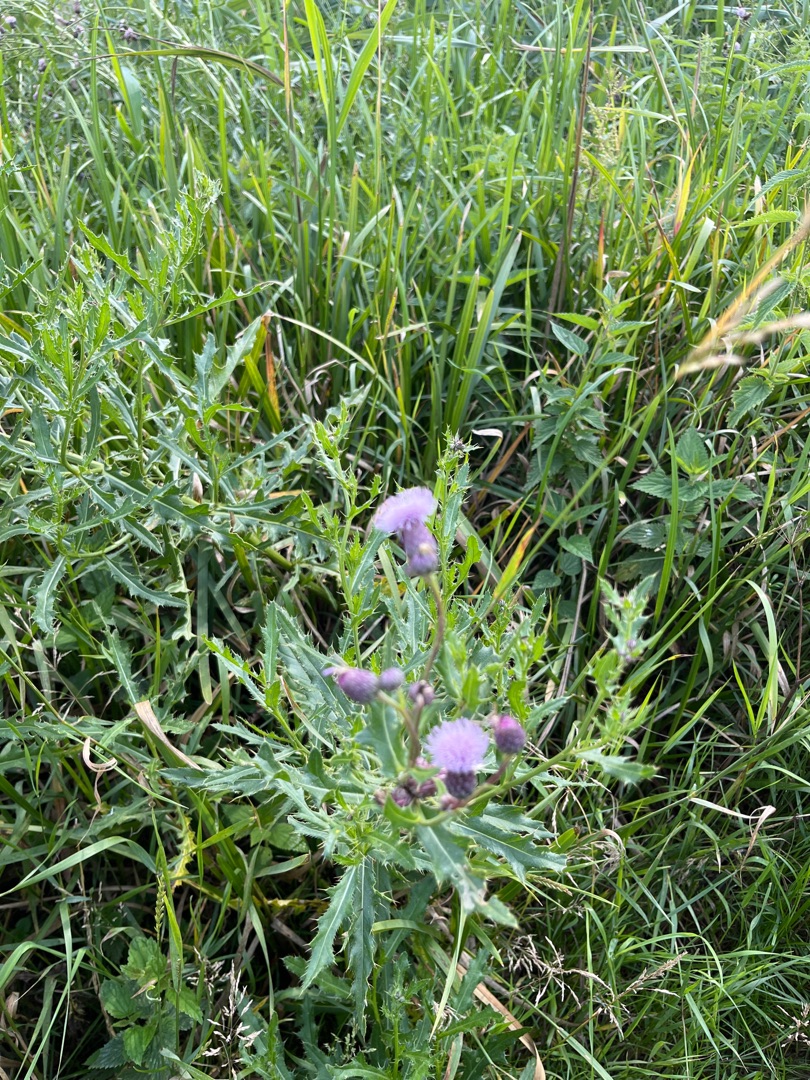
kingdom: Plantae
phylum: Tracheophyta
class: Magnoliopsida
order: Asterales
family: Asteraceae
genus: Cirsium
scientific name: Cirsium arvense
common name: Ager-tidsel
